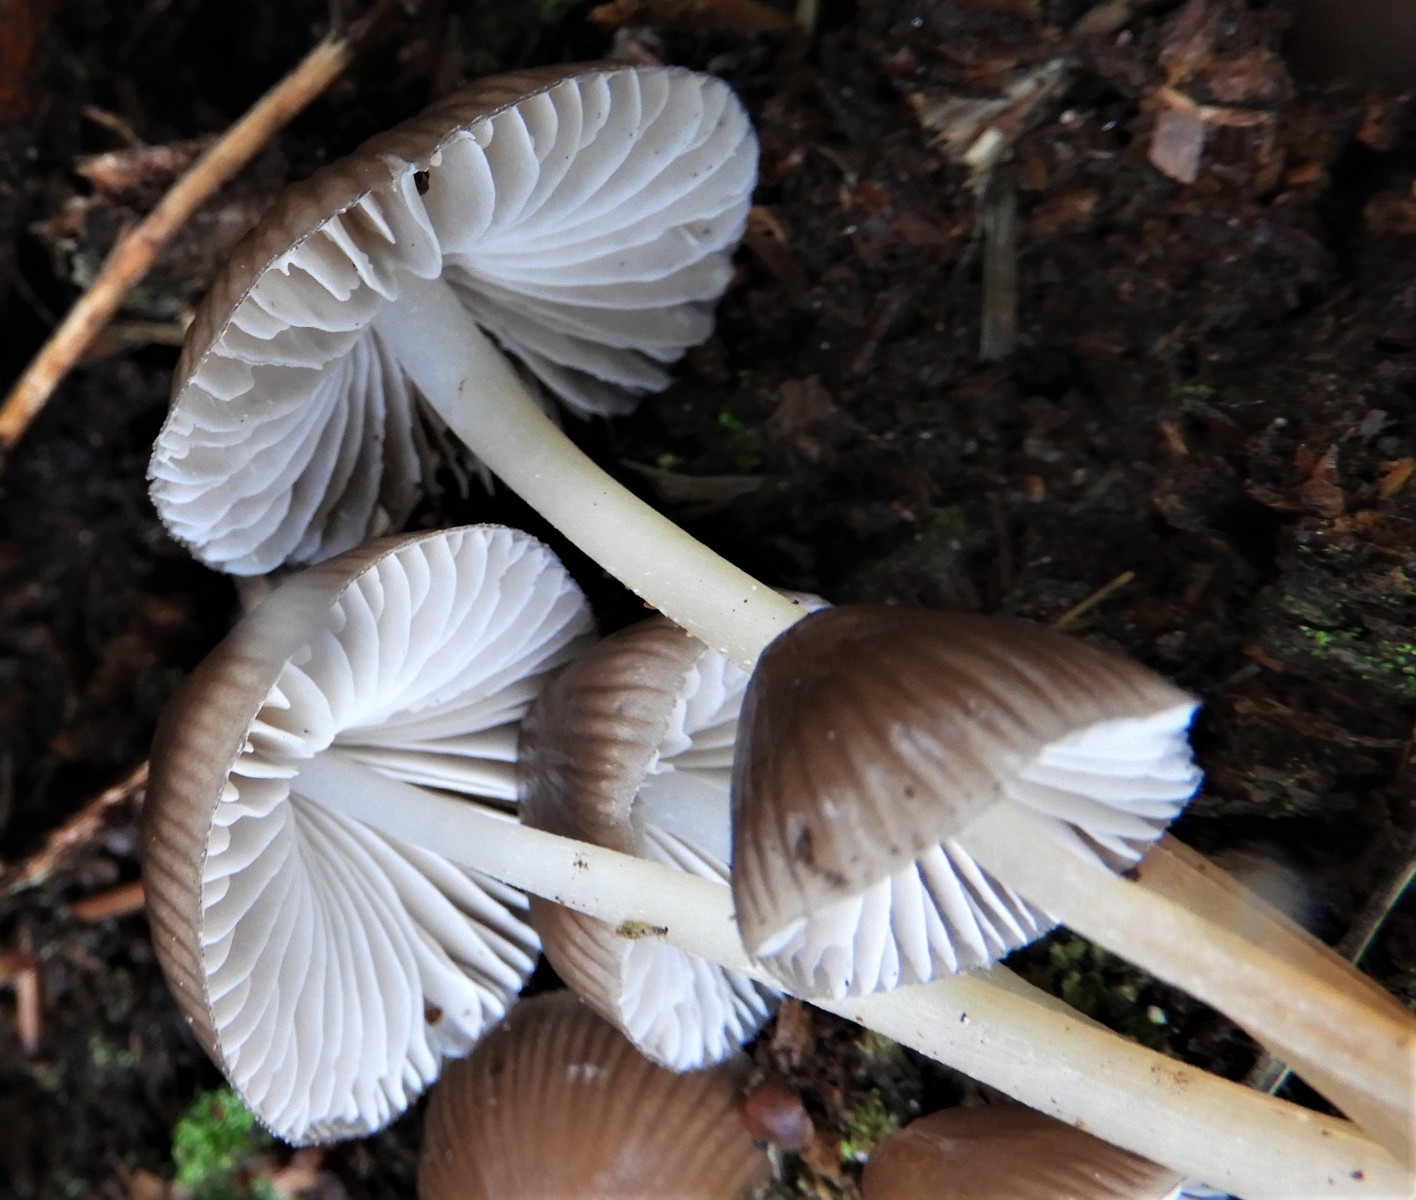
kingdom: Fungi
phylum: Basidiomycota
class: Agaricomycetes
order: Agaricales
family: Mycenaceae
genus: Mycena
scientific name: Mycena inclinata
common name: nikkende huesvamp
